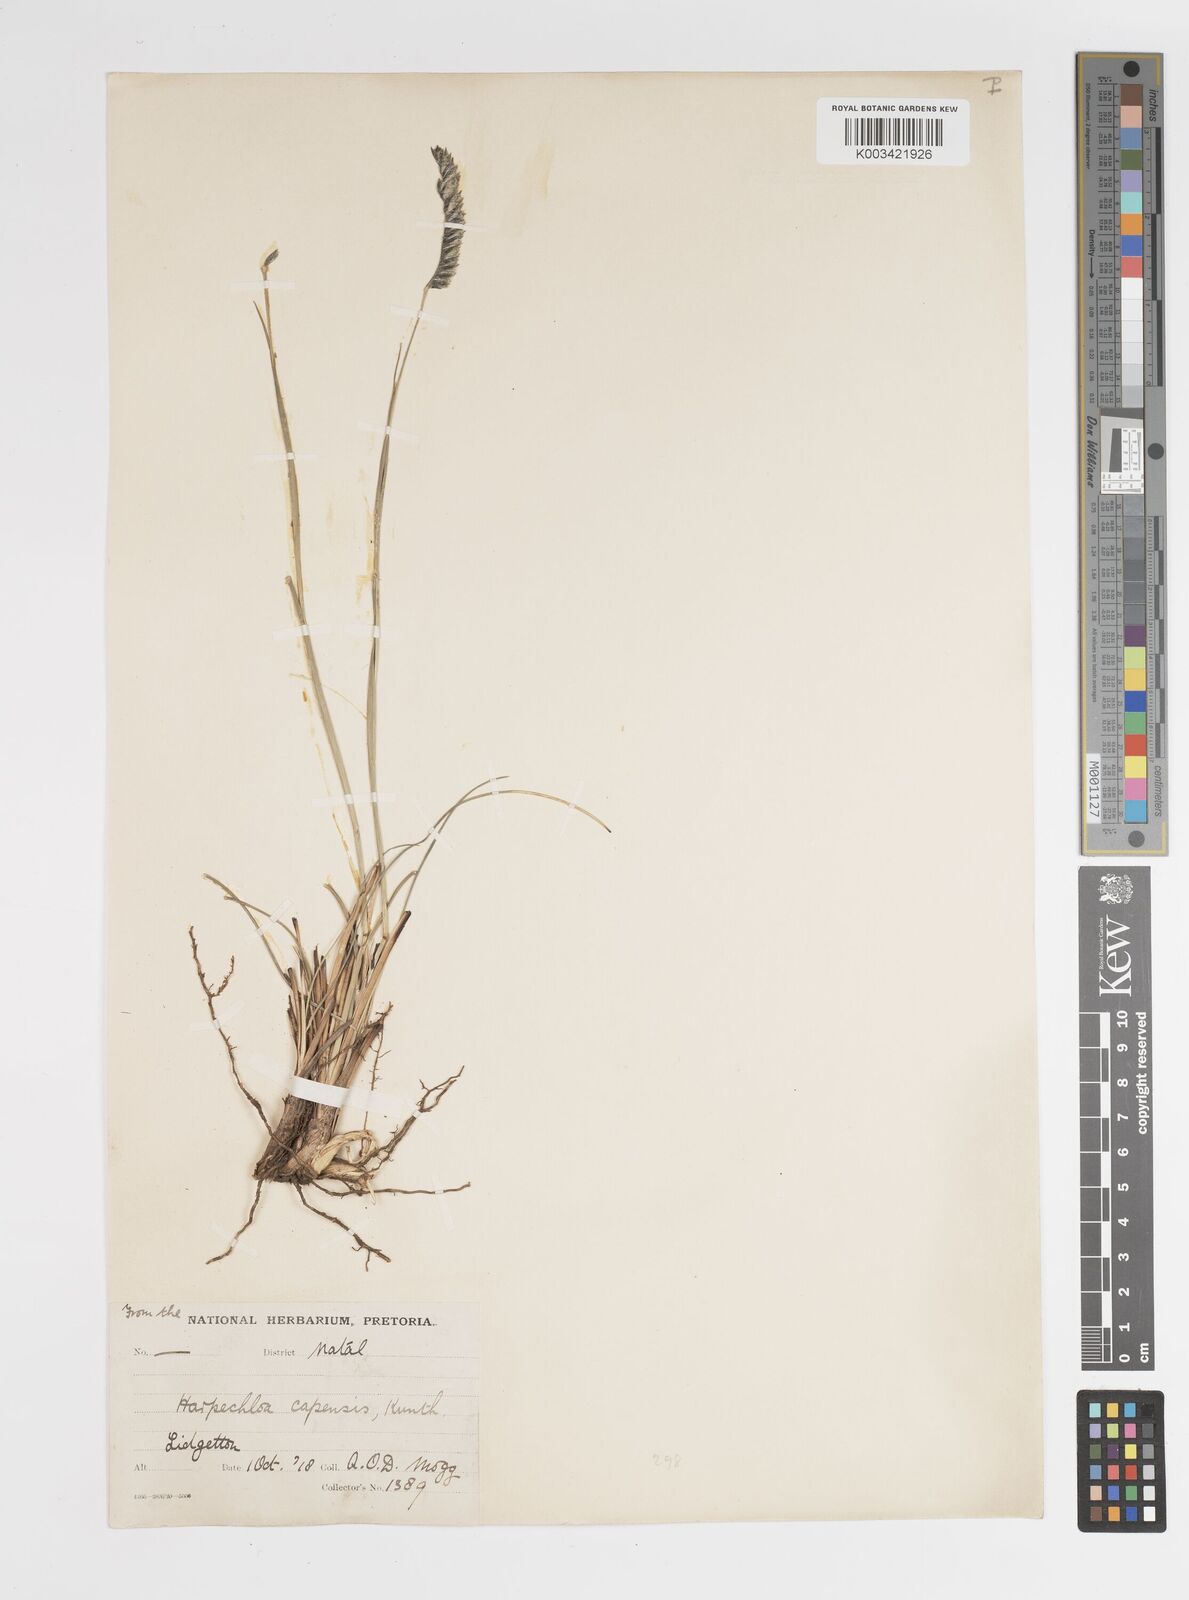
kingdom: Plantae
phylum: Tracheophyta
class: Liliopsida
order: Poales
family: Poaceae
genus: Harpochloa
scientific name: Harpochloa falx
